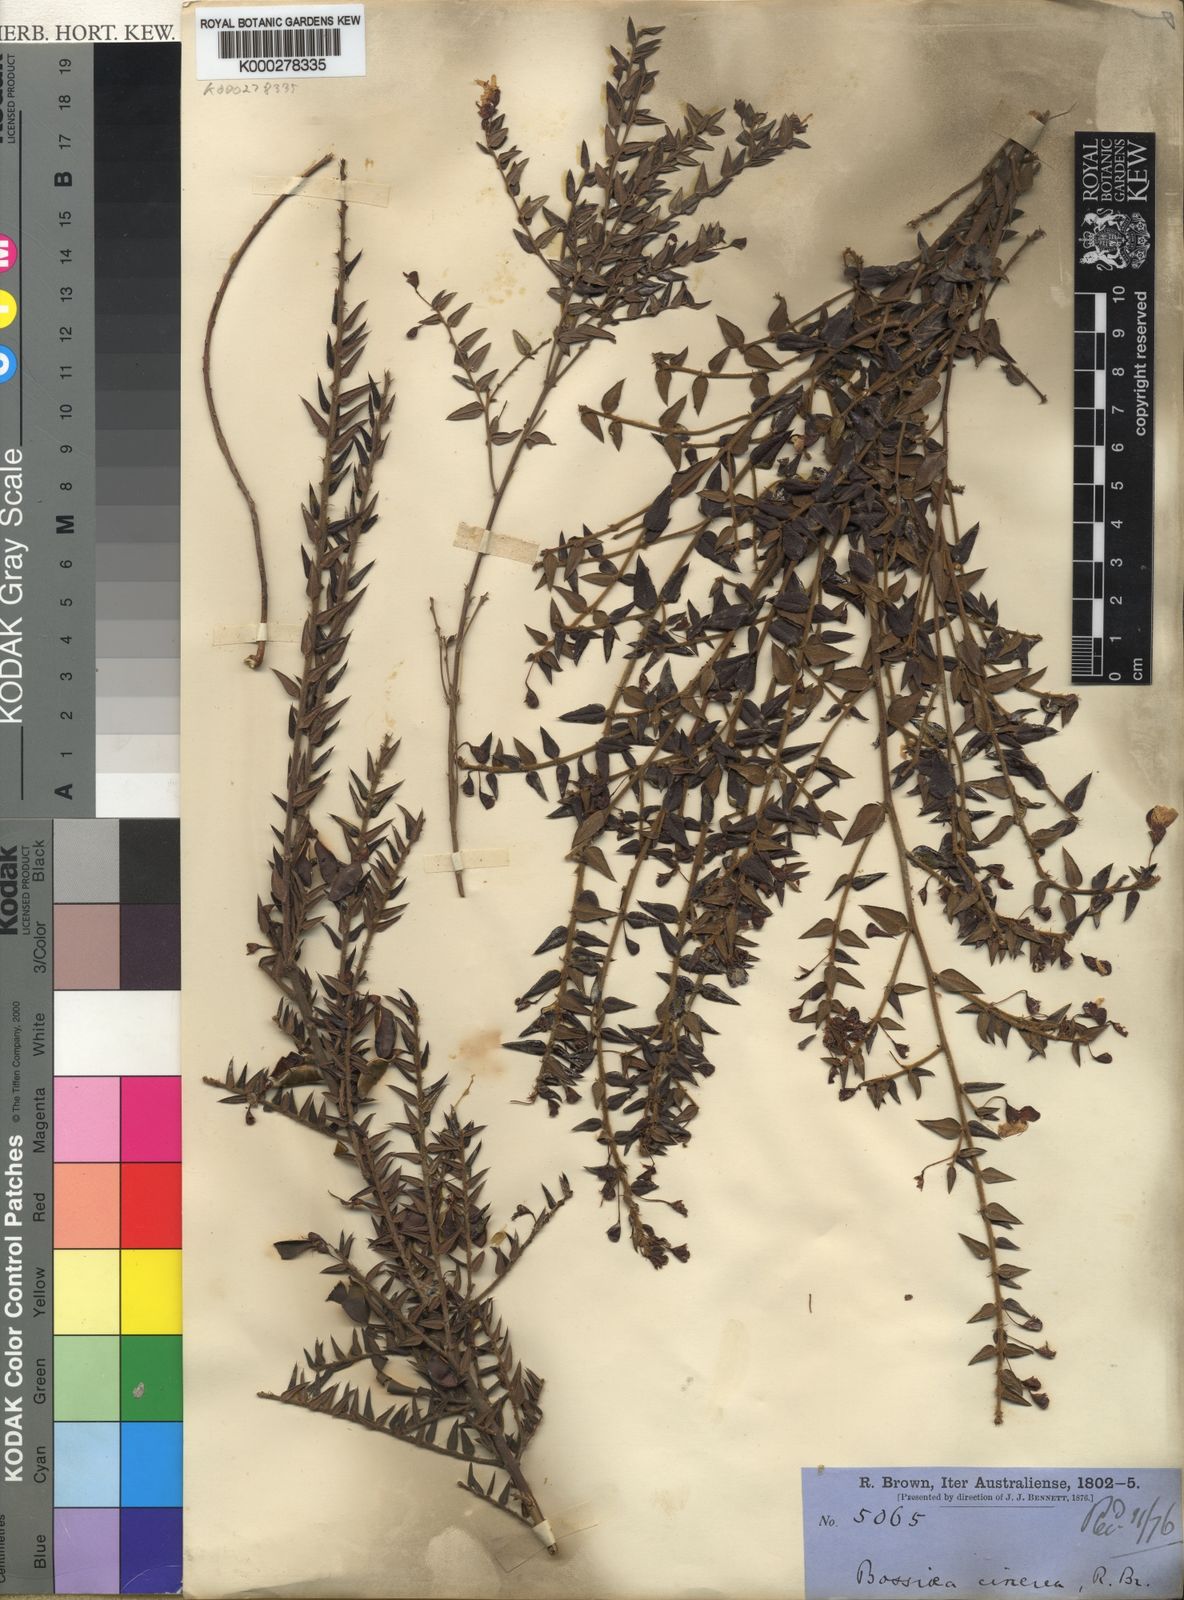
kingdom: Plantae
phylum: Tracheophyta
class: Magnoliopsida
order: Fabales
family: Fabaceae
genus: Bossiaea
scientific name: Bossiaea cinerea
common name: Showy bossiaea
